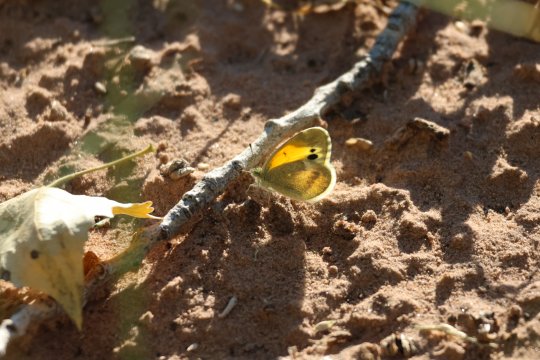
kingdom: Animalia
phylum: Arthropoda
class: Insecta
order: Lepidoptera
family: Pieridae
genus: Nathalis
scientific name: Nathalis iole
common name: Dainty Sulphur
